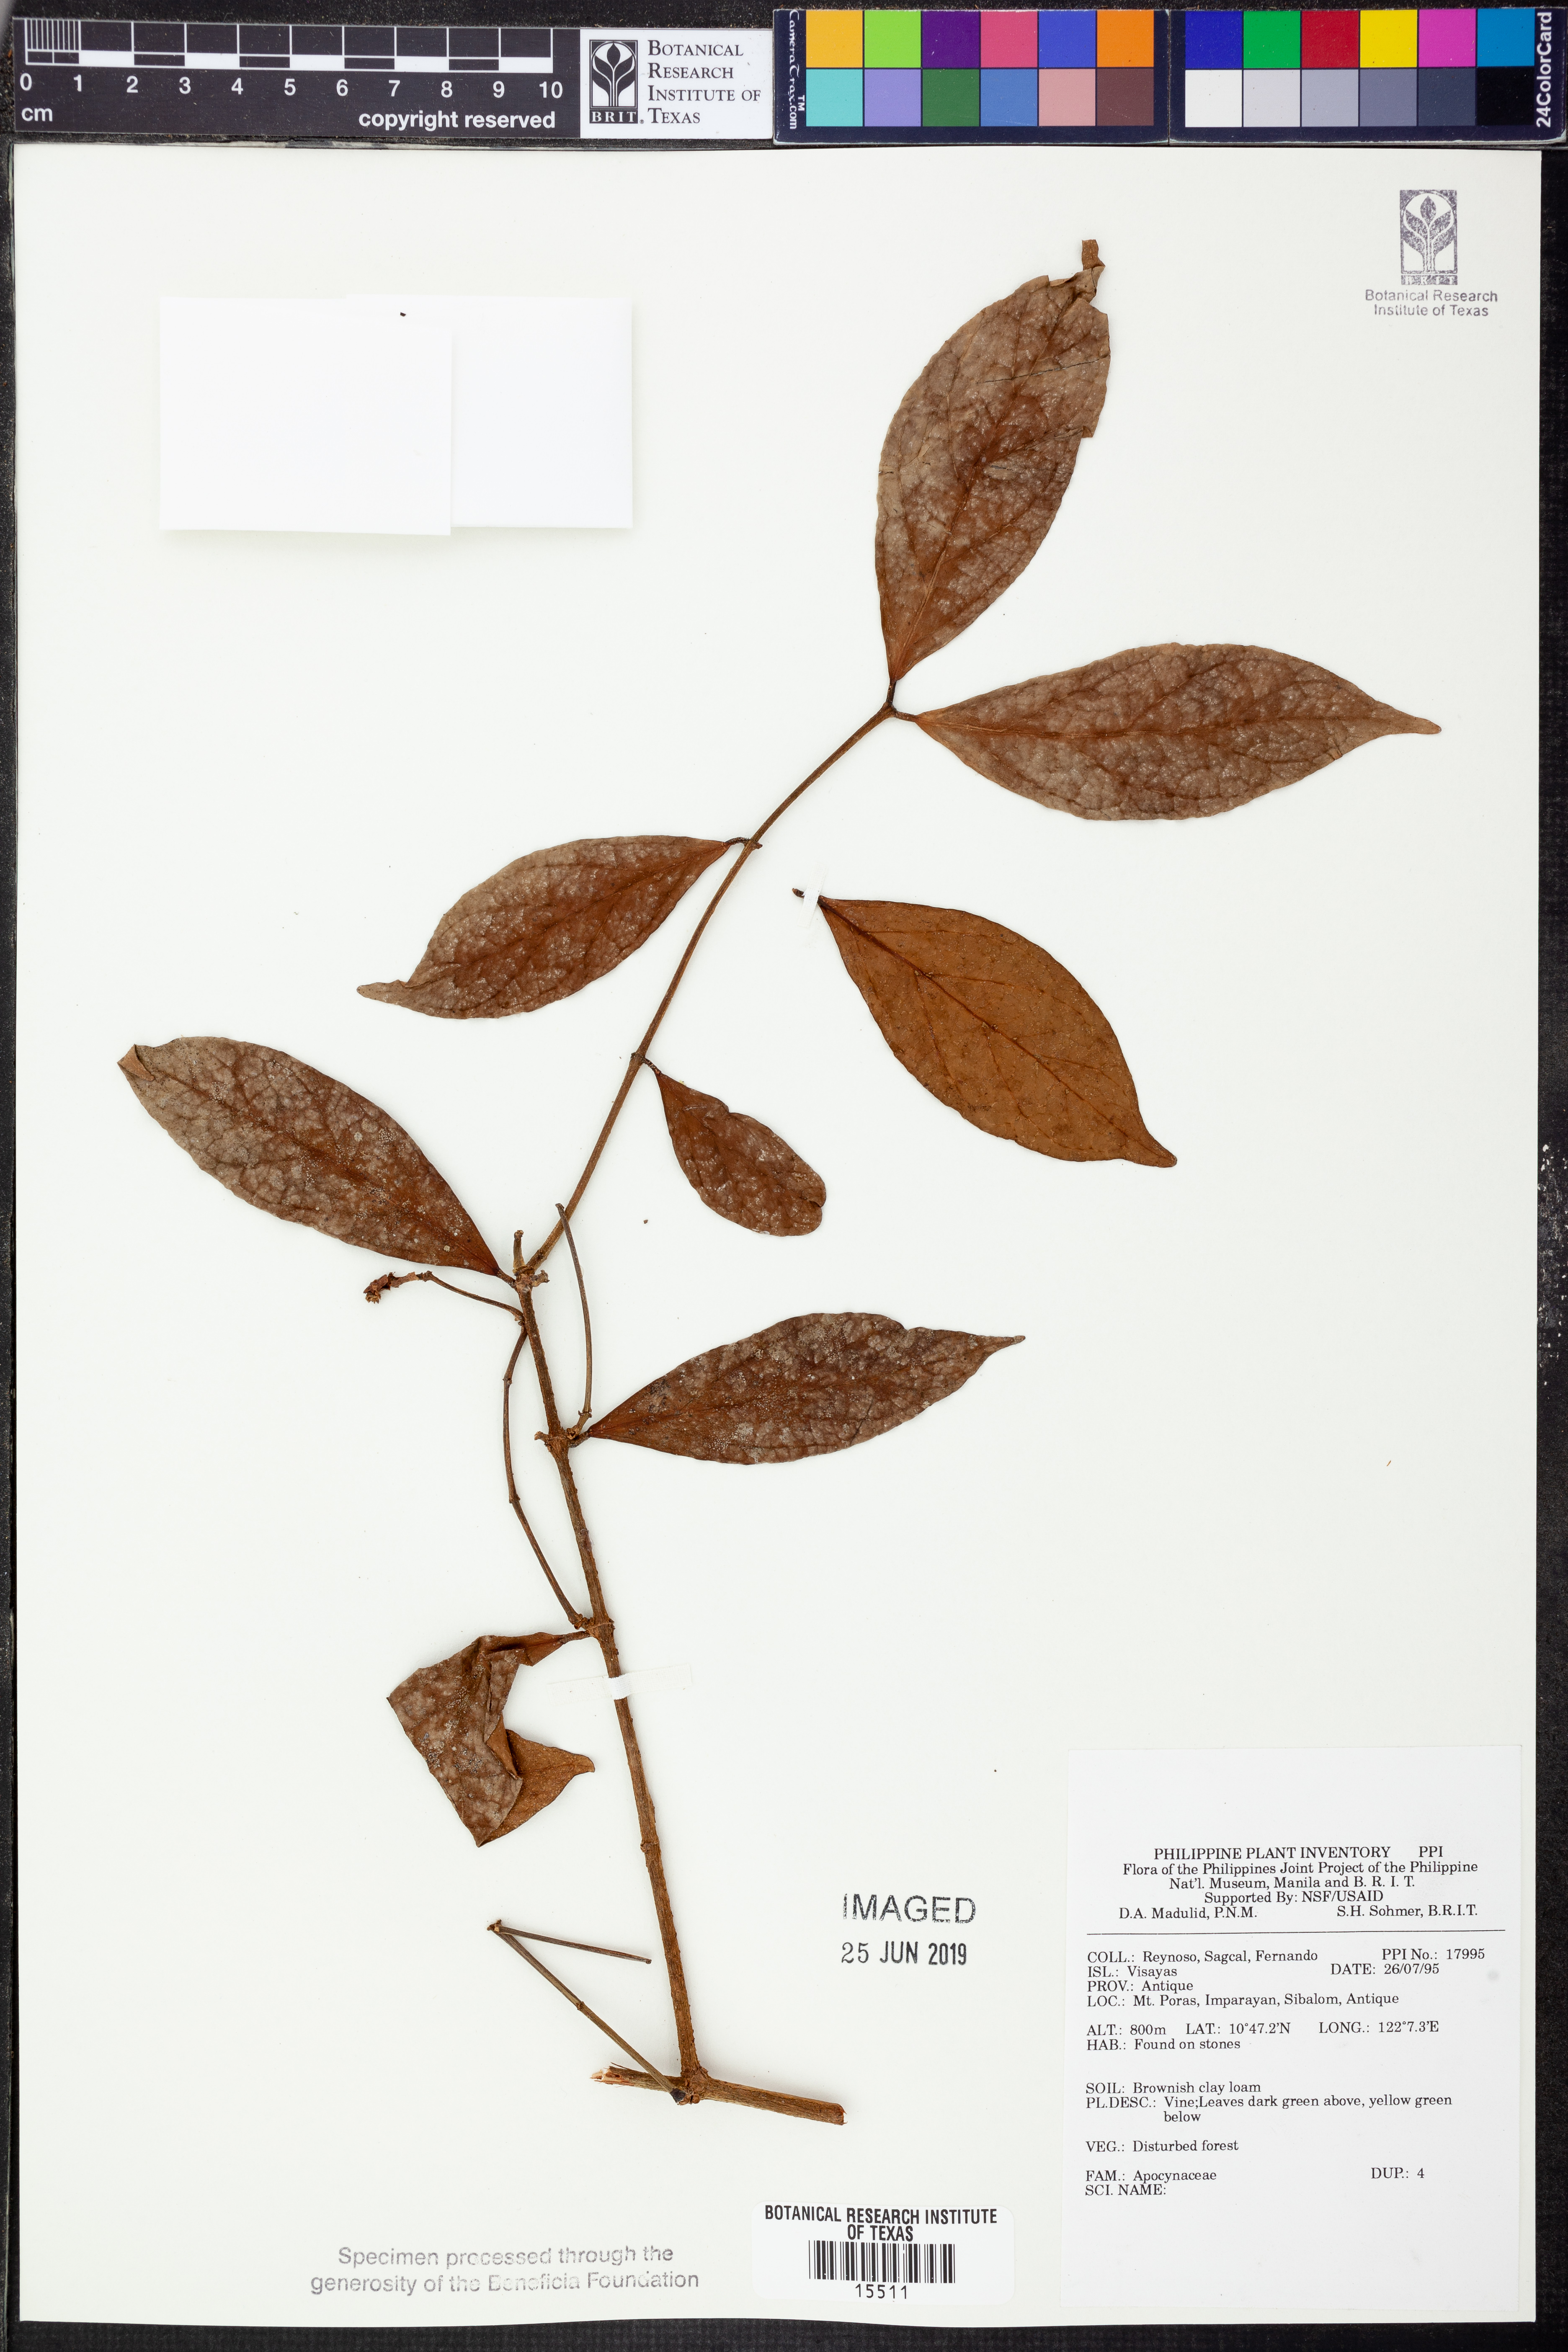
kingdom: Plantae
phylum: Tracheophyta
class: Magnoliopsida
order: Gentianales
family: Apocynaceae
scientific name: Apocynaceae
